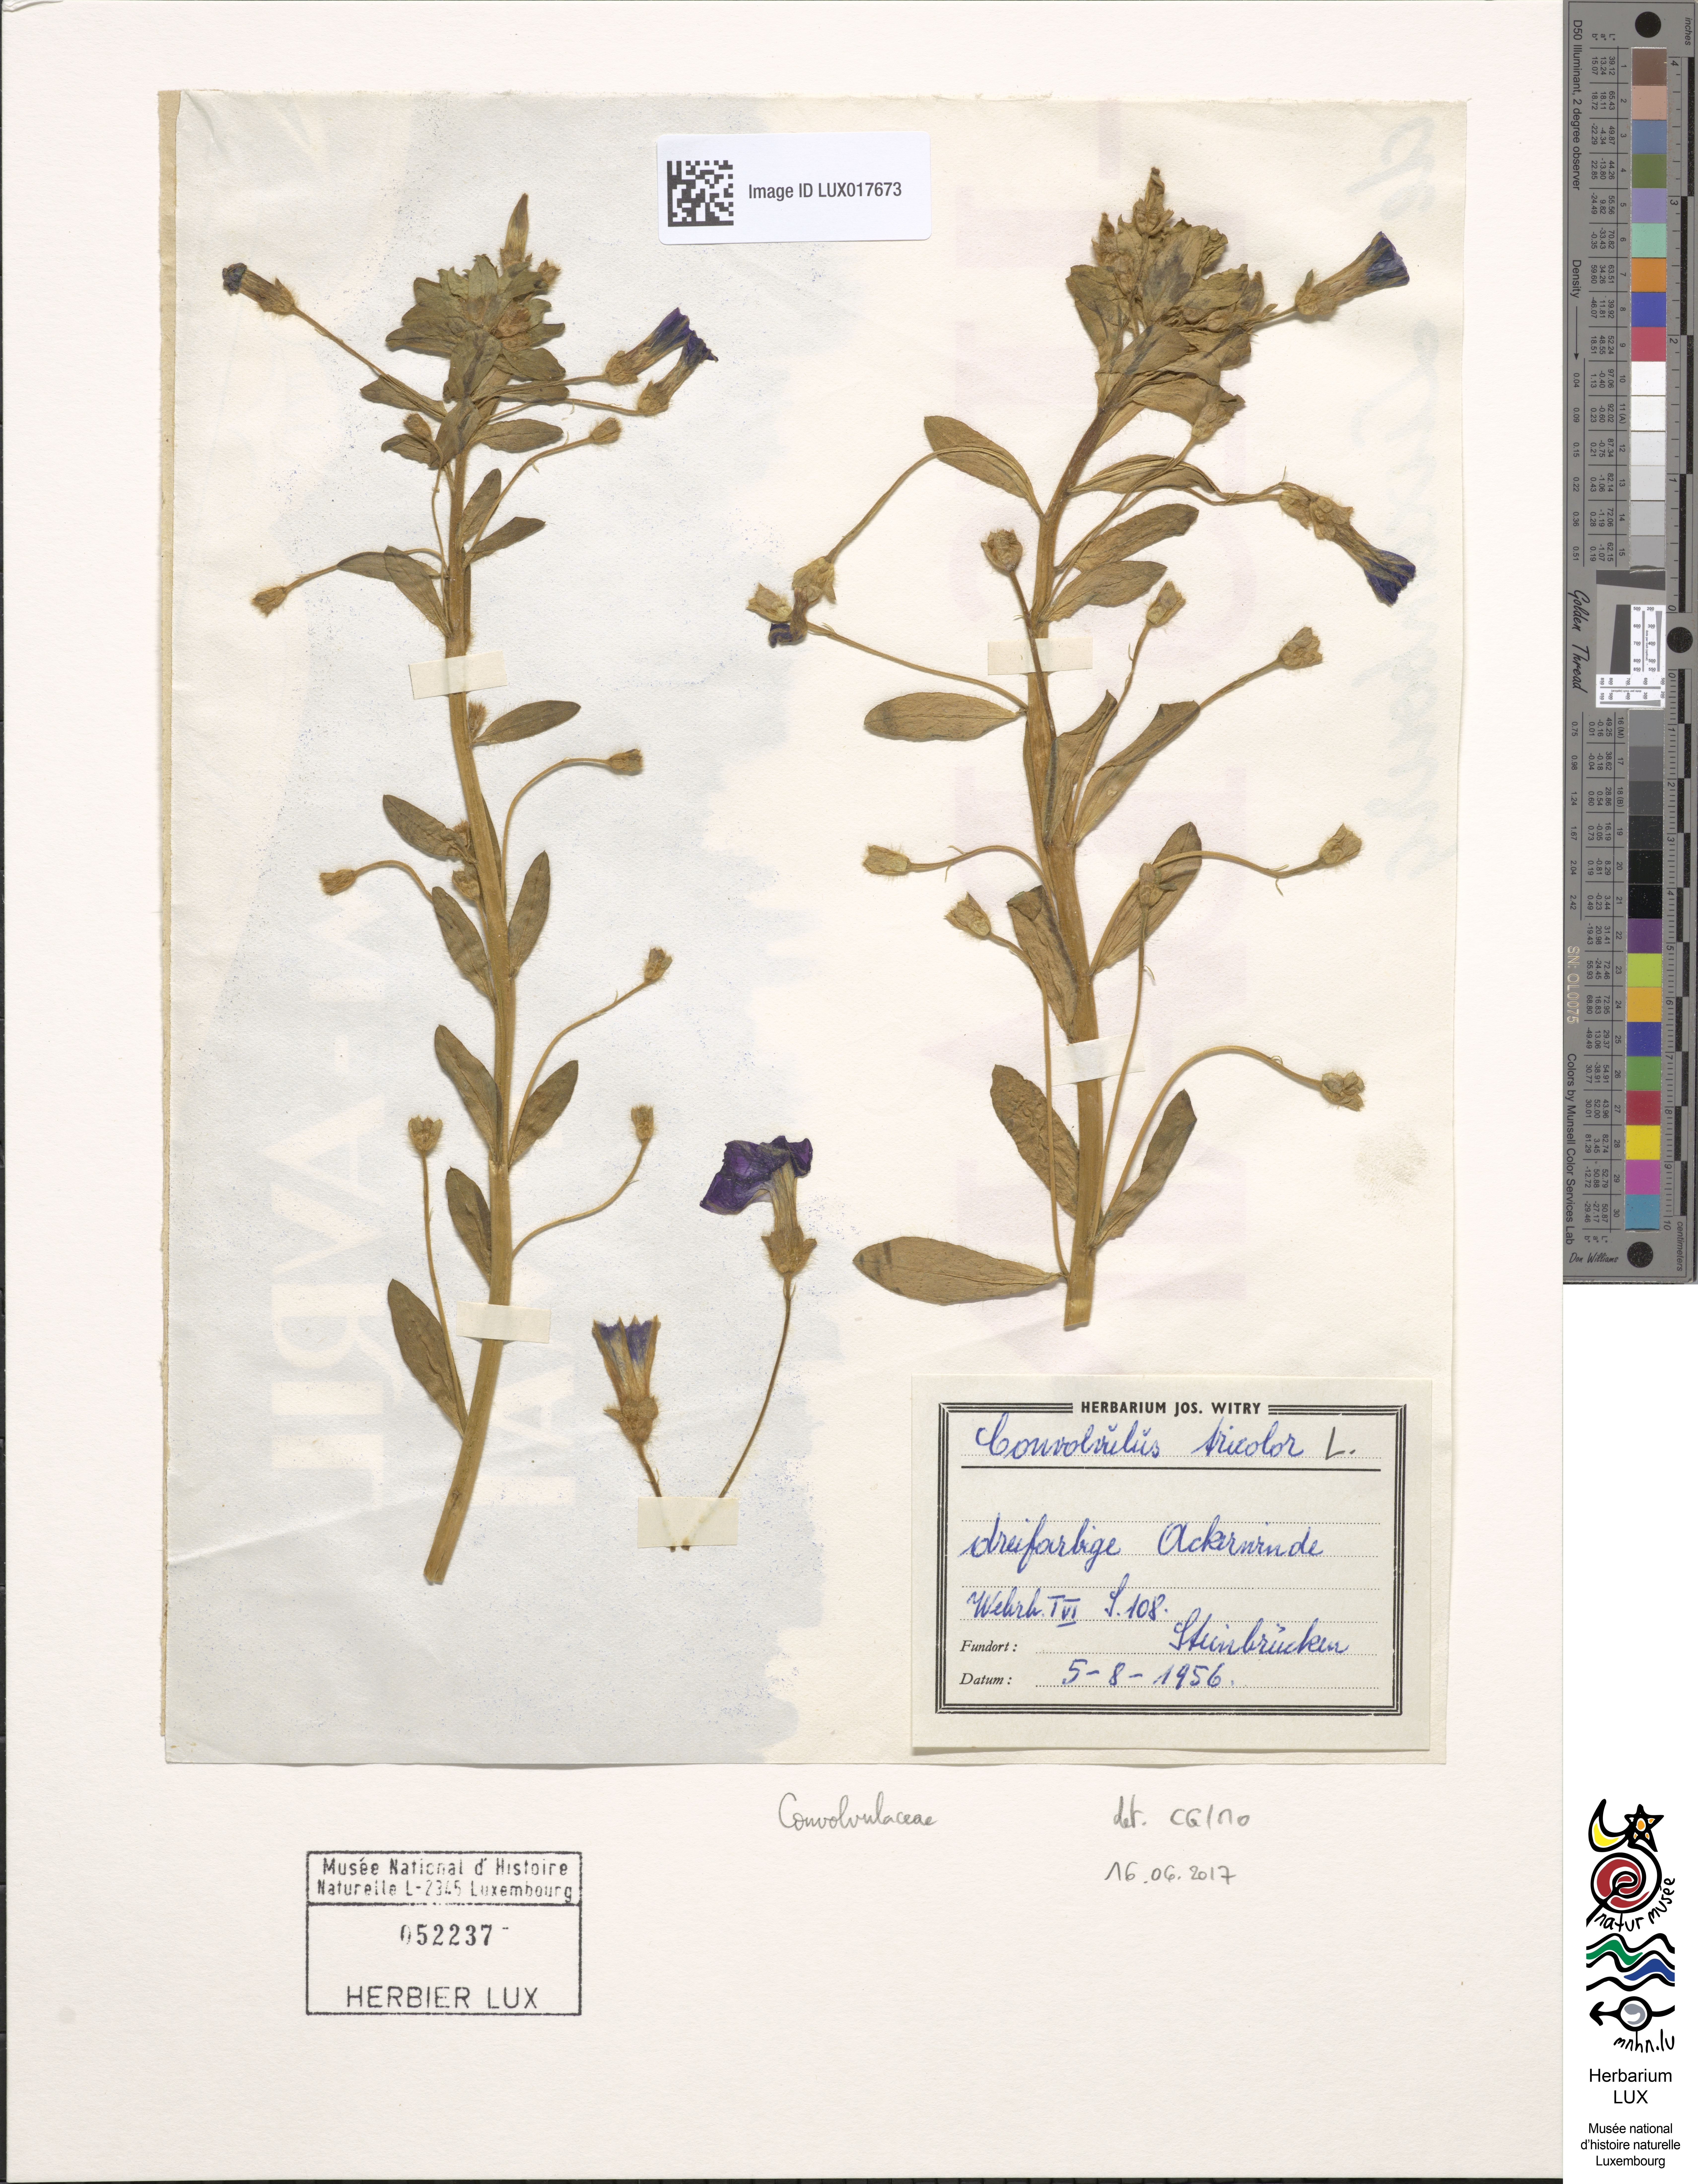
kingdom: Plantae
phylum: Tracheophyta
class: Magnoliopsida
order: Solanales
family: Convolvulaceae
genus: Convolvulus
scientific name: Convolvulus tricolor
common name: Dwarf morning-glory
